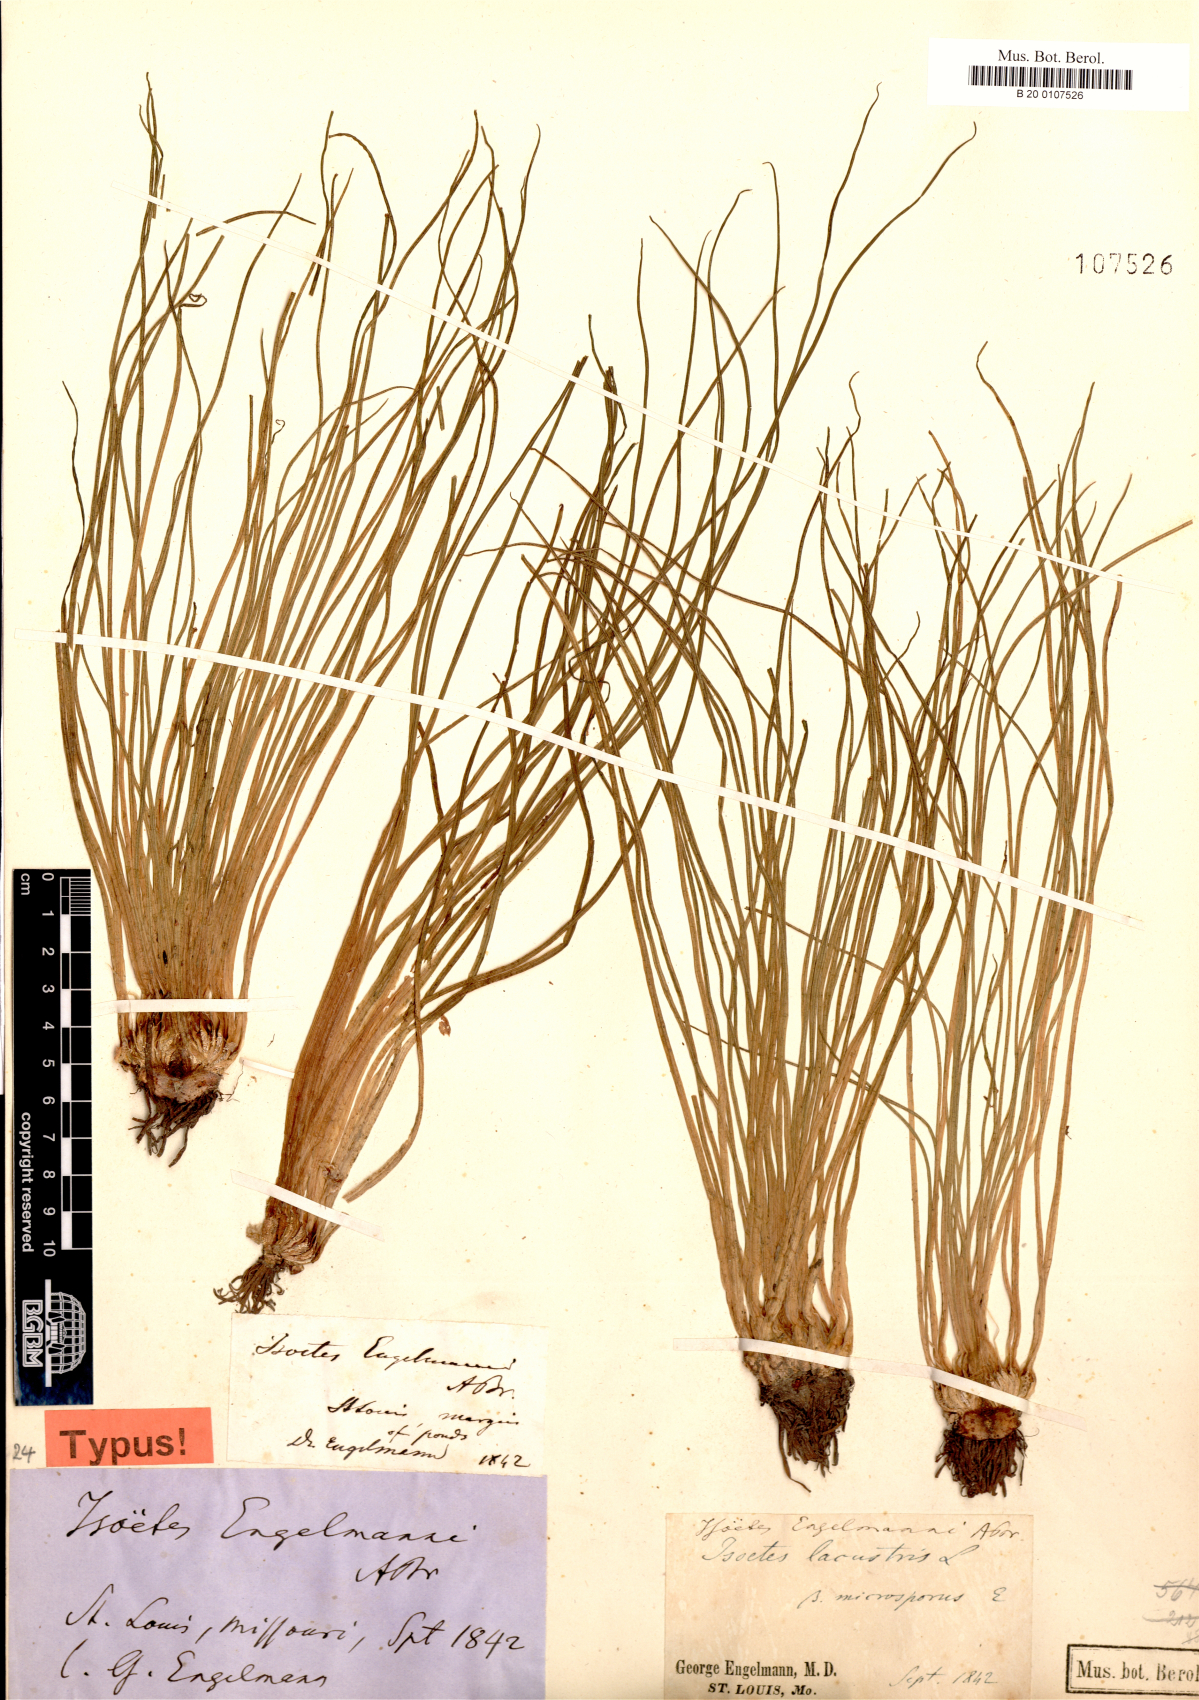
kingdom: Plantae
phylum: Tracheophyta
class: Lycopodiopsida
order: Isoetales
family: Isoetaceae
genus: Isoetes
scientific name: Isoetes engelmannii
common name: Engelmann's quillwort
